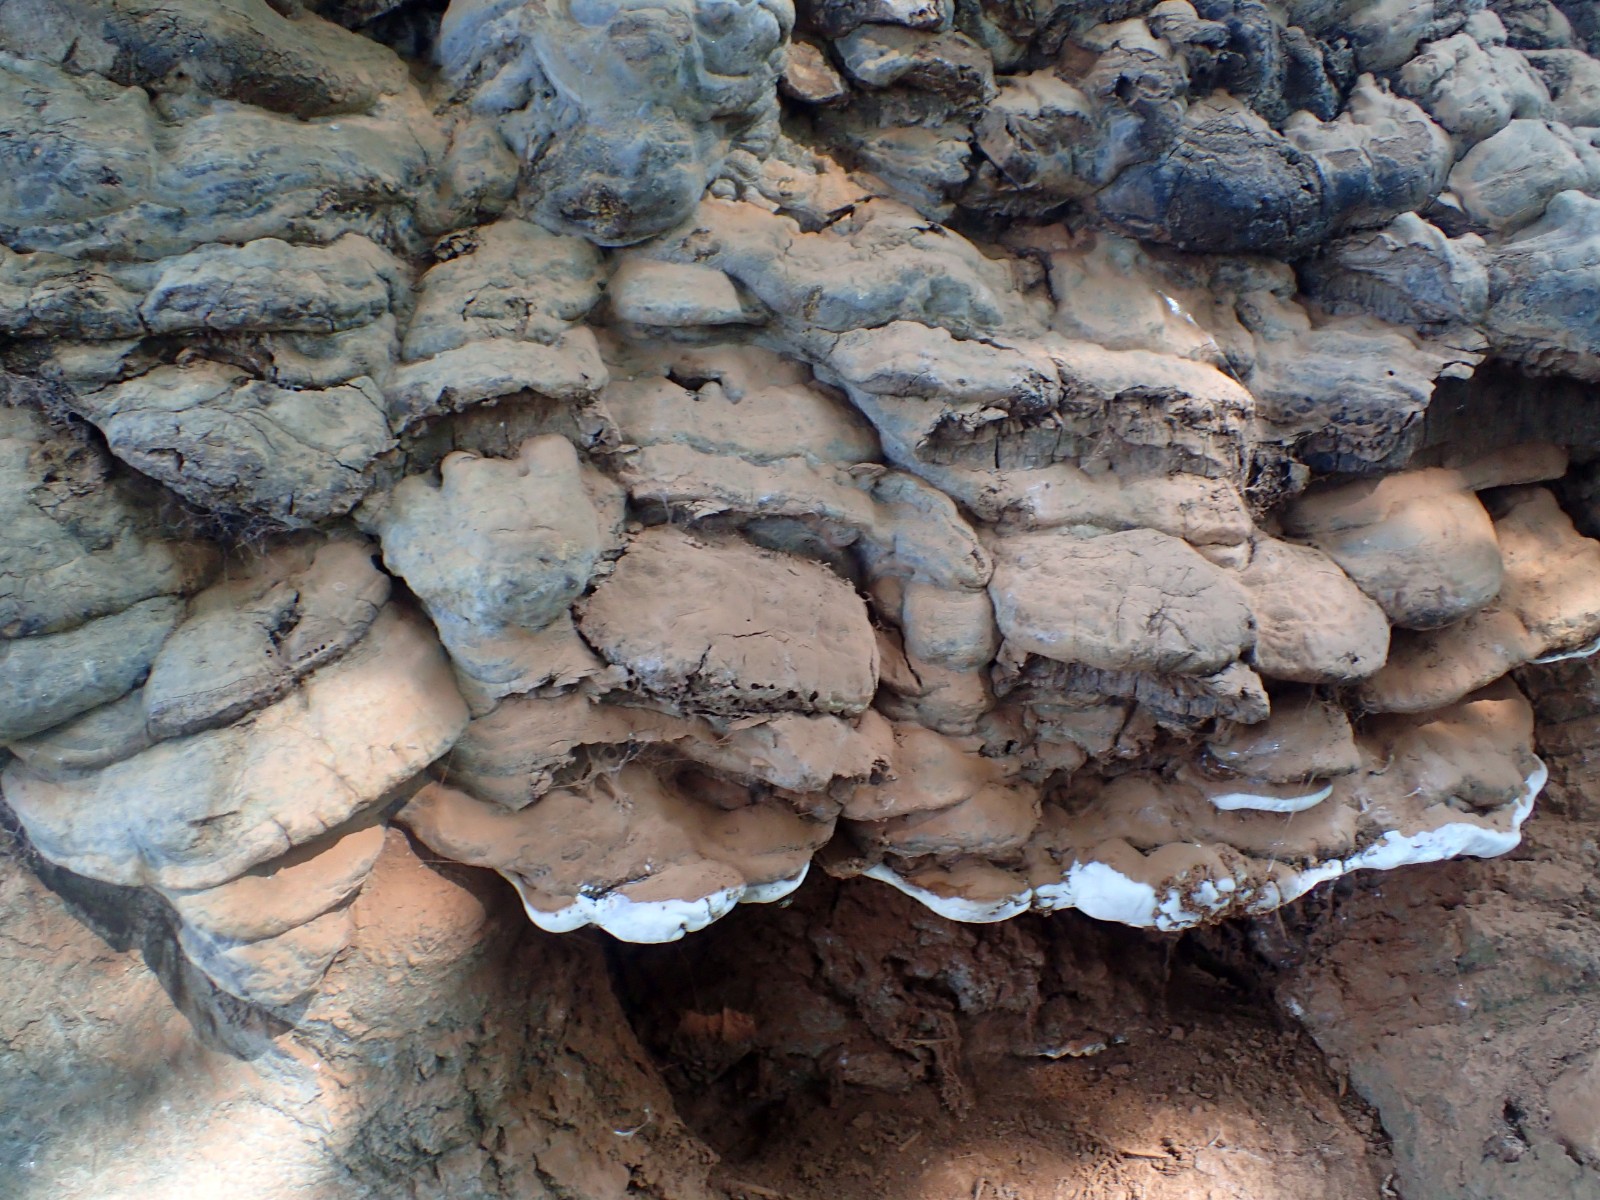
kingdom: Fungi
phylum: Basidiomycota
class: Agaricomycetes
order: Polyporales
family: Polyporaceae
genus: Ganoderma
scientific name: Ganoderma pfeifferi
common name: kobberrød lakporesvamp
